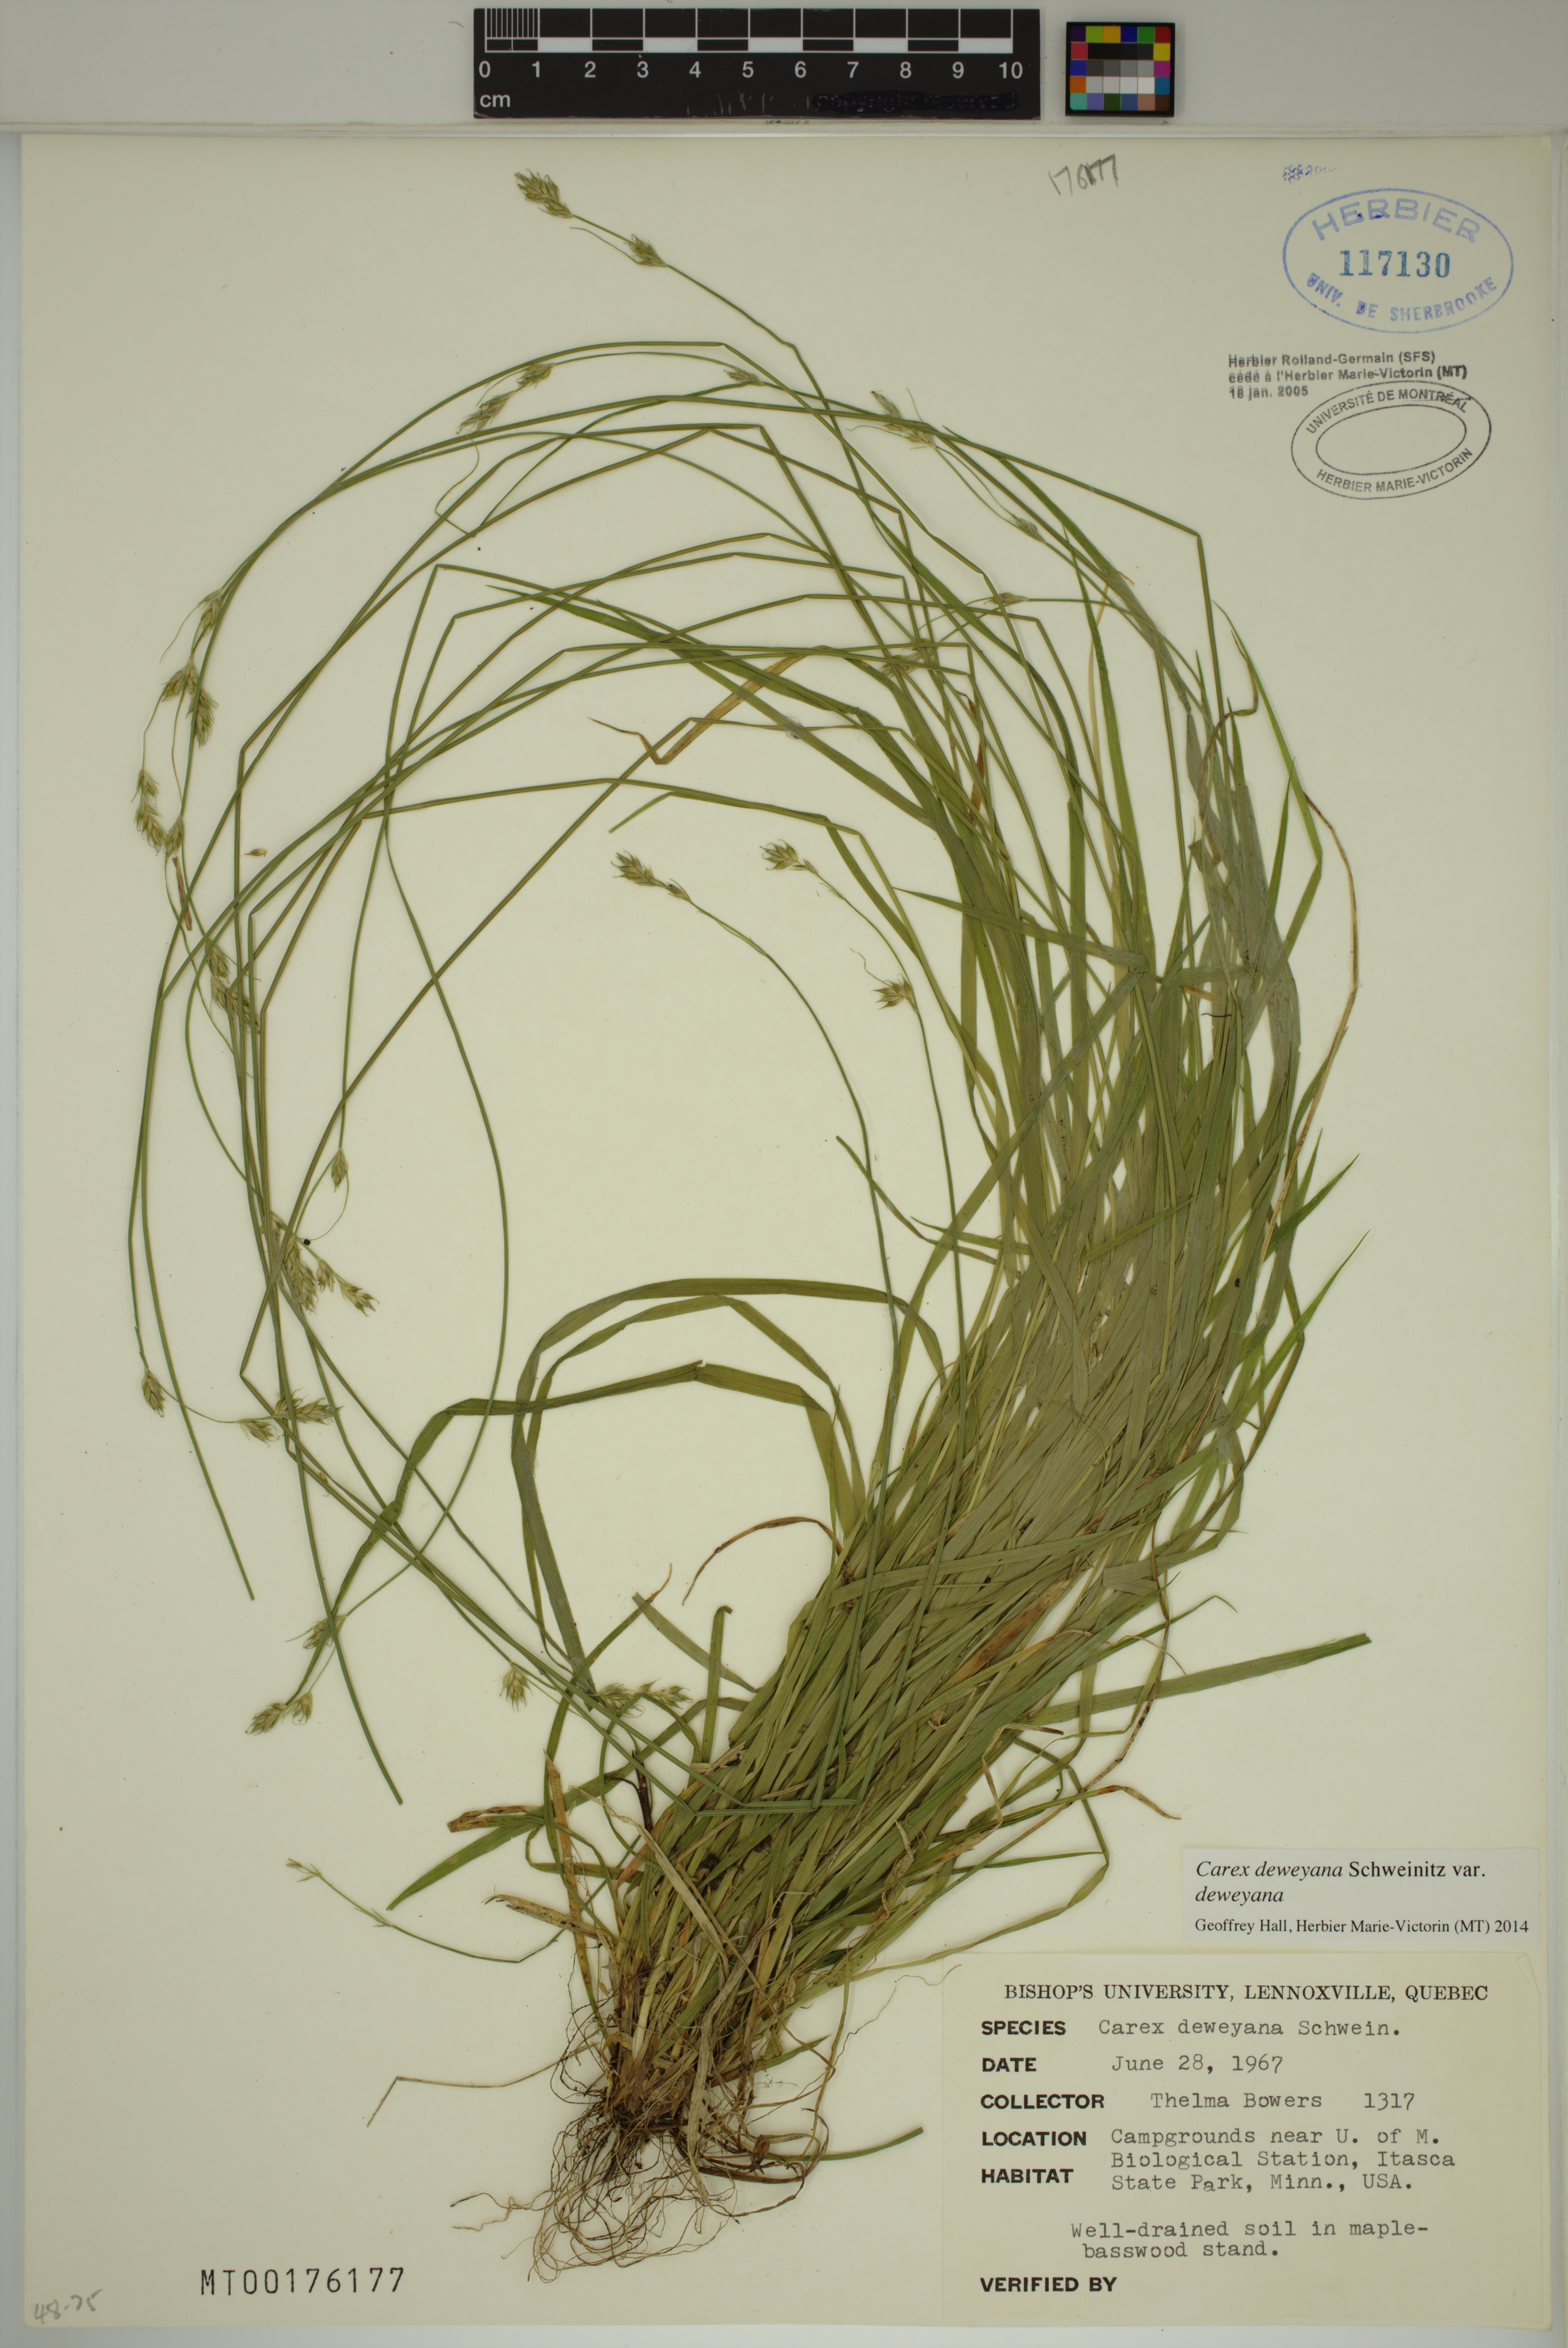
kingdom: Plantae
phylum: Tracheophyta
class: Liliopsida
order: Poales
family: Cyperaceae
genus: Carex
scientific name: Carex deweyana
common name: Dewey's sedge
